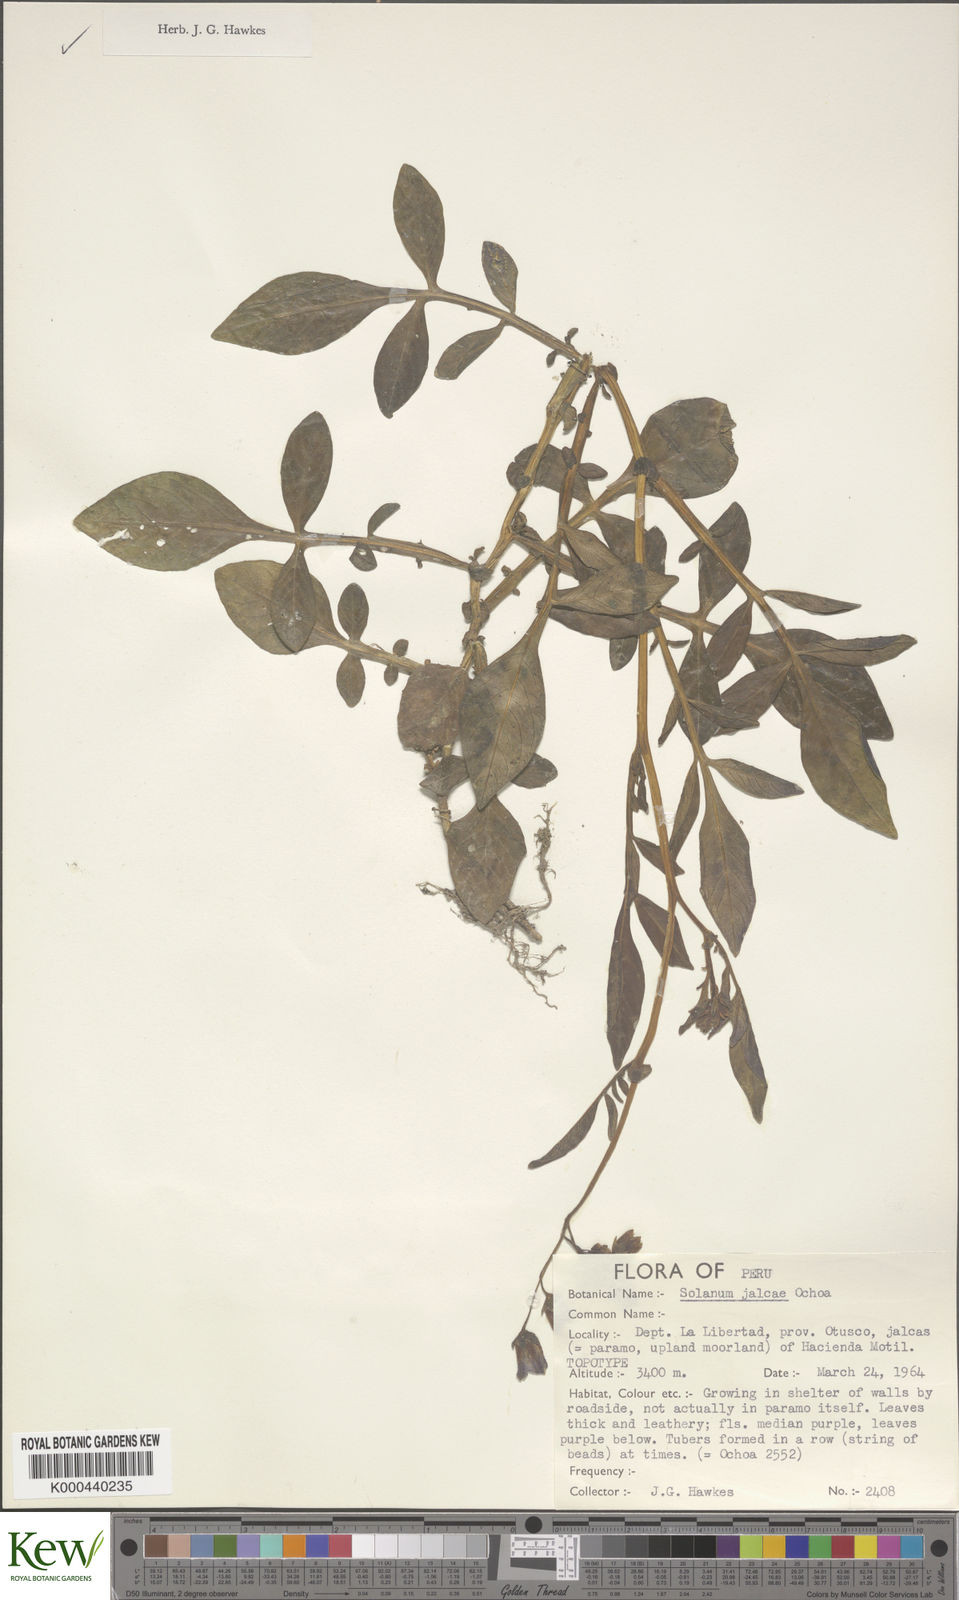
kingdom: Plantae
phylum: Tracheophyta
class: Magnoliopsida
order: Solanales
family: Solanaceae
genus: Solanum
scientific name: Solanum chomatophilum
